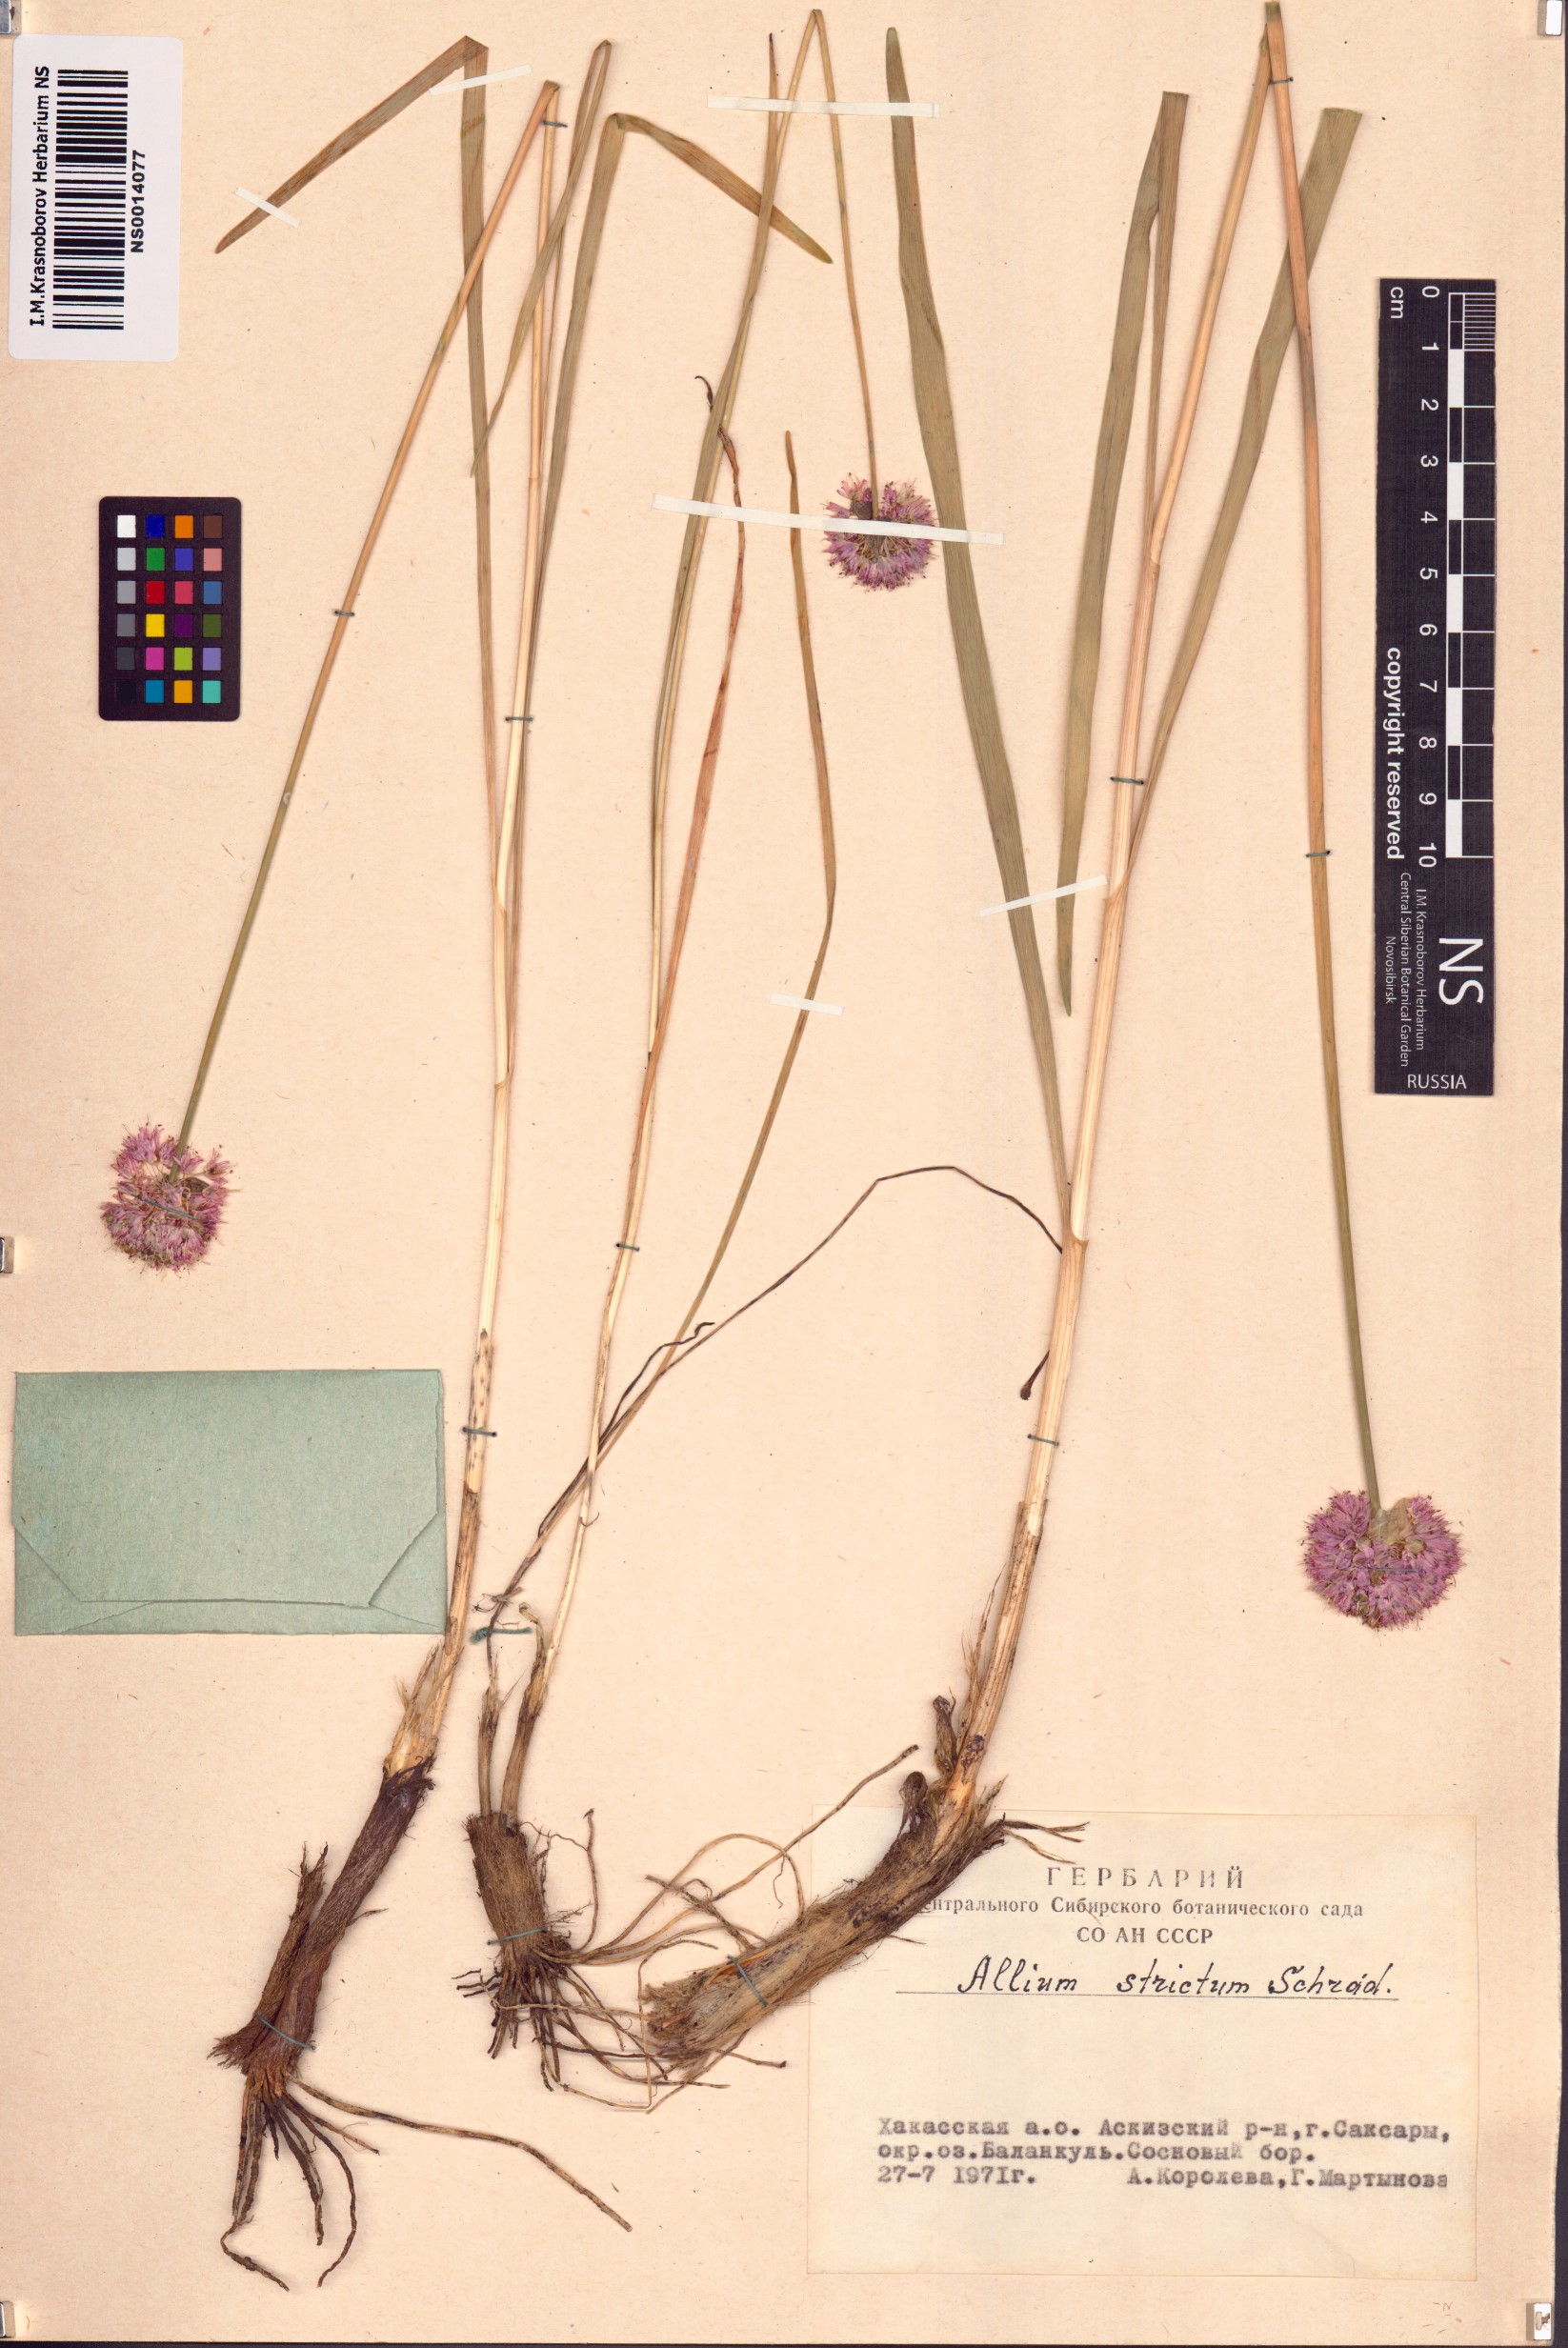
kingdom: Plantae
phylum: Tracheophyta
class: Liliopsida
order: Asparagales
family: Amaryllidaceae
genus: Allium
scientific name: Allium strictum
